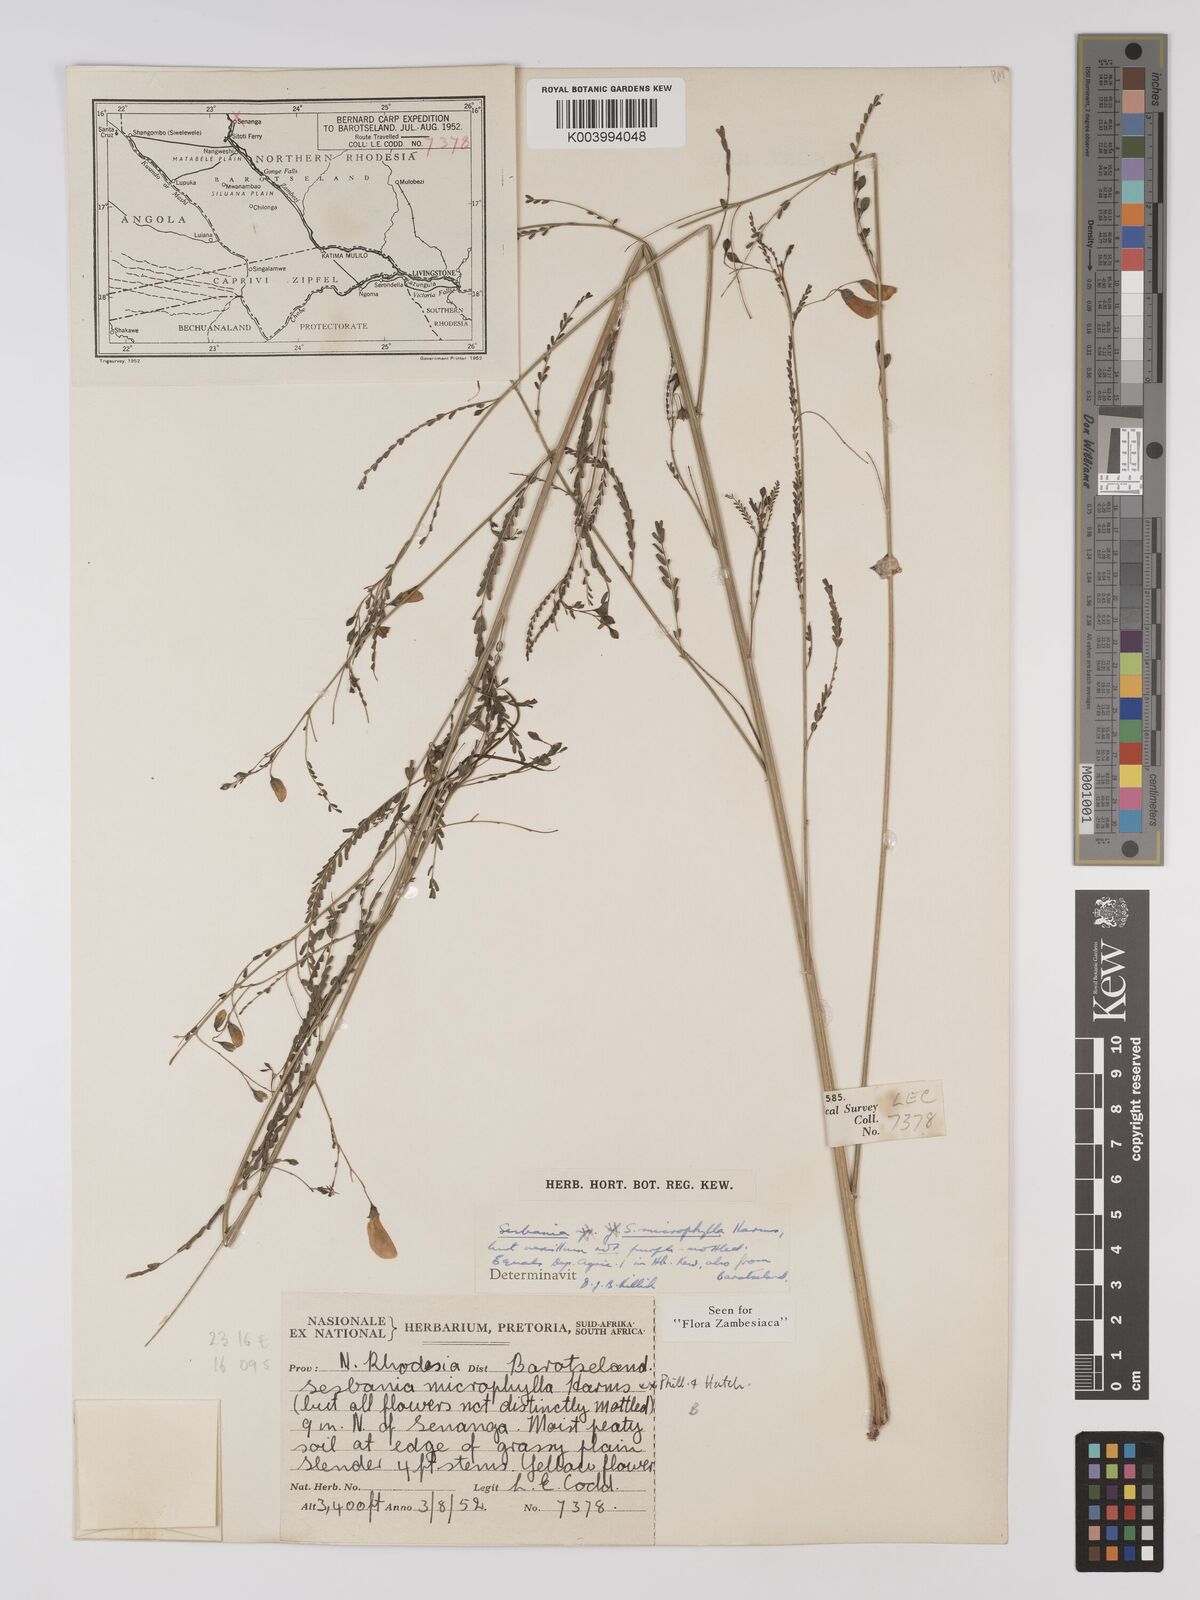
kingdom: Plantae
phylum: Tracheophyta
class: Magnoliopsida
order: Fabales
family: Fabaceae
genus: Sesbania
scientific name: Sesbania microphylla
